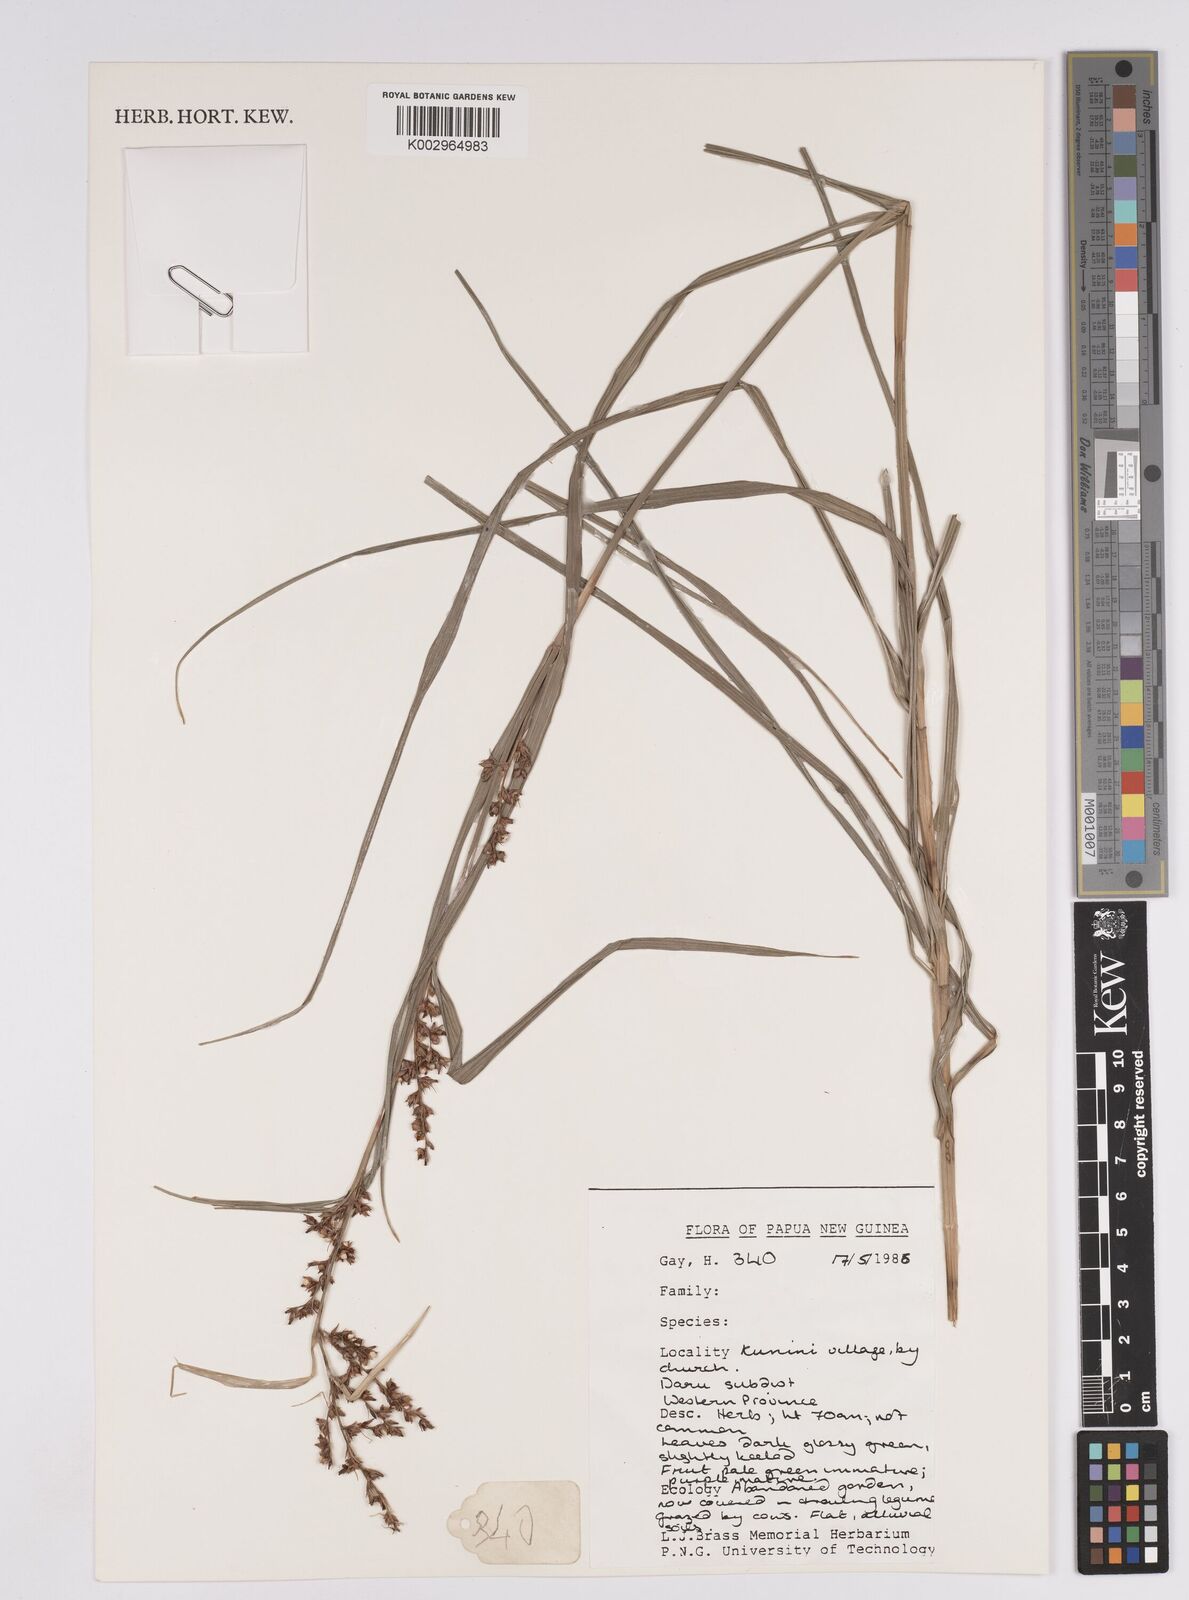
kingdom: Plantae
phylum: Tracheophyta
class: Liliopsida
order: Poales
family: Cyperaceae
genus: Scleria
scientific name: Scleria
